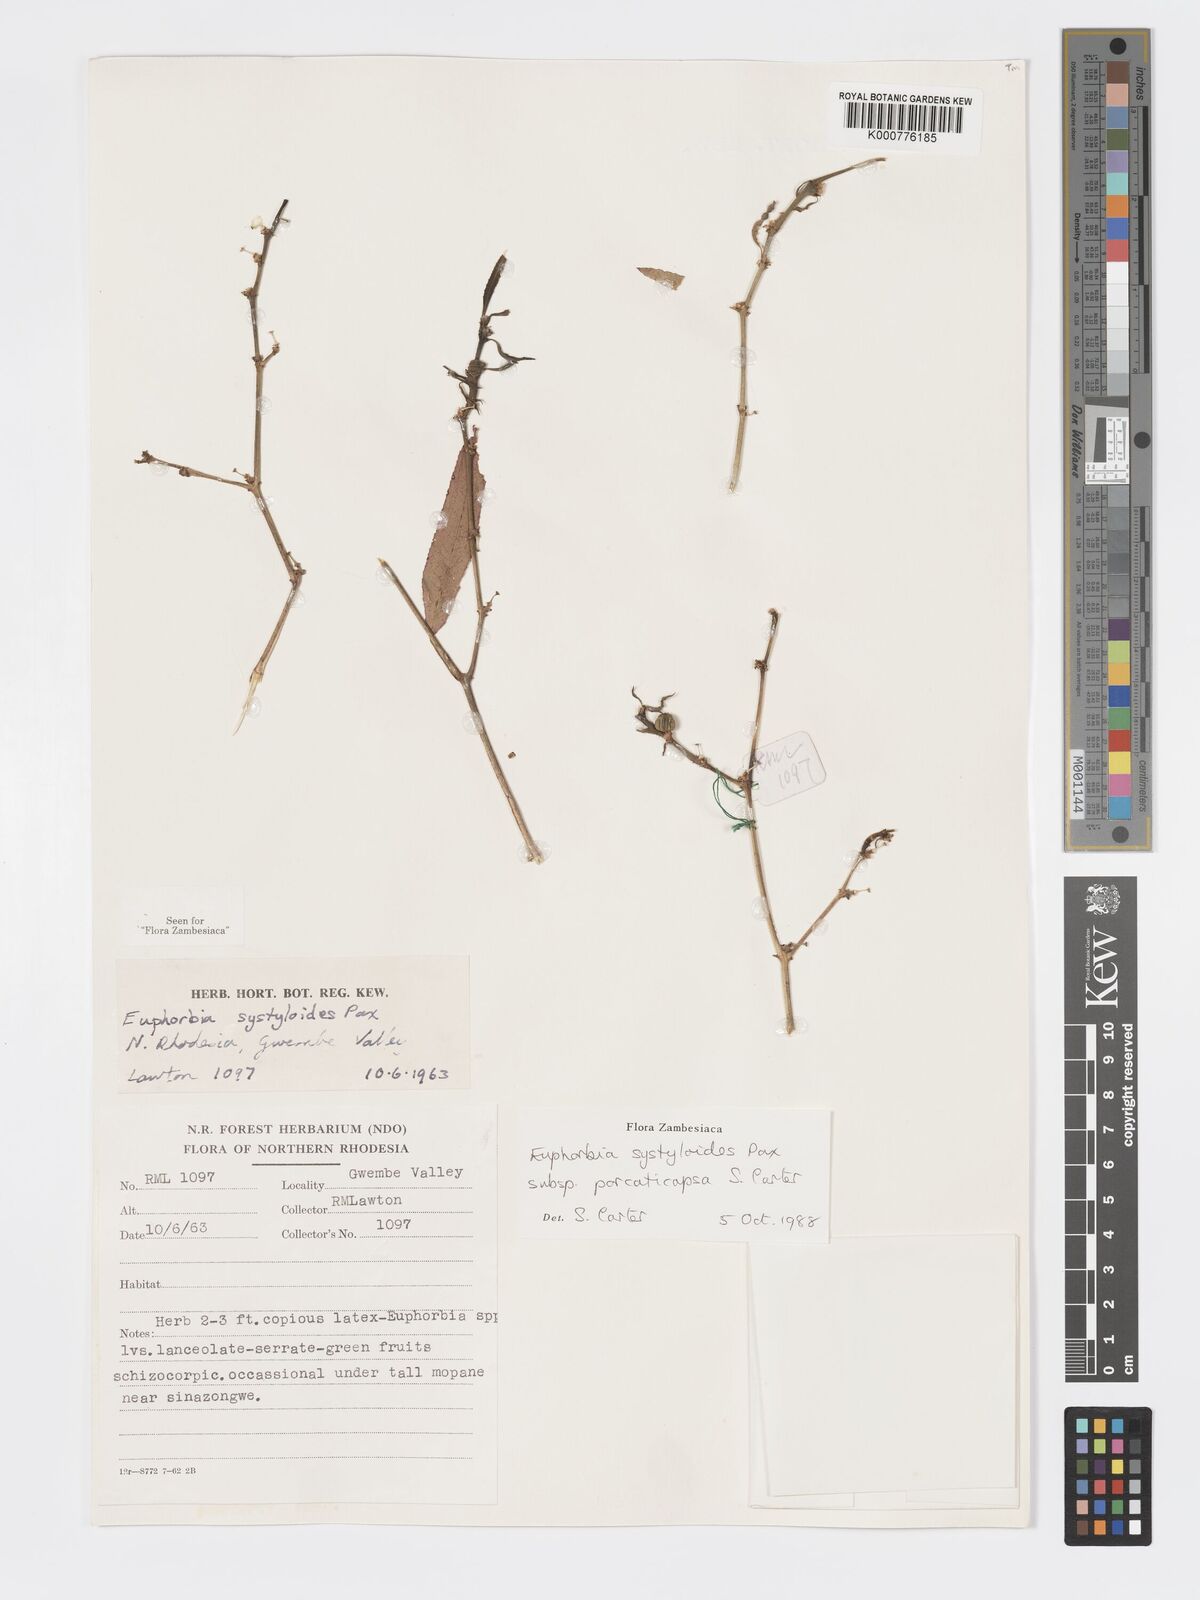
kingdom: Plantae
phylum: Tracheophyta
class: Magnoliopsida
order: Malpighiales
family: Euphorbiaceae
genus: Euphorbia
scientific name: Euphorbia systyloides
